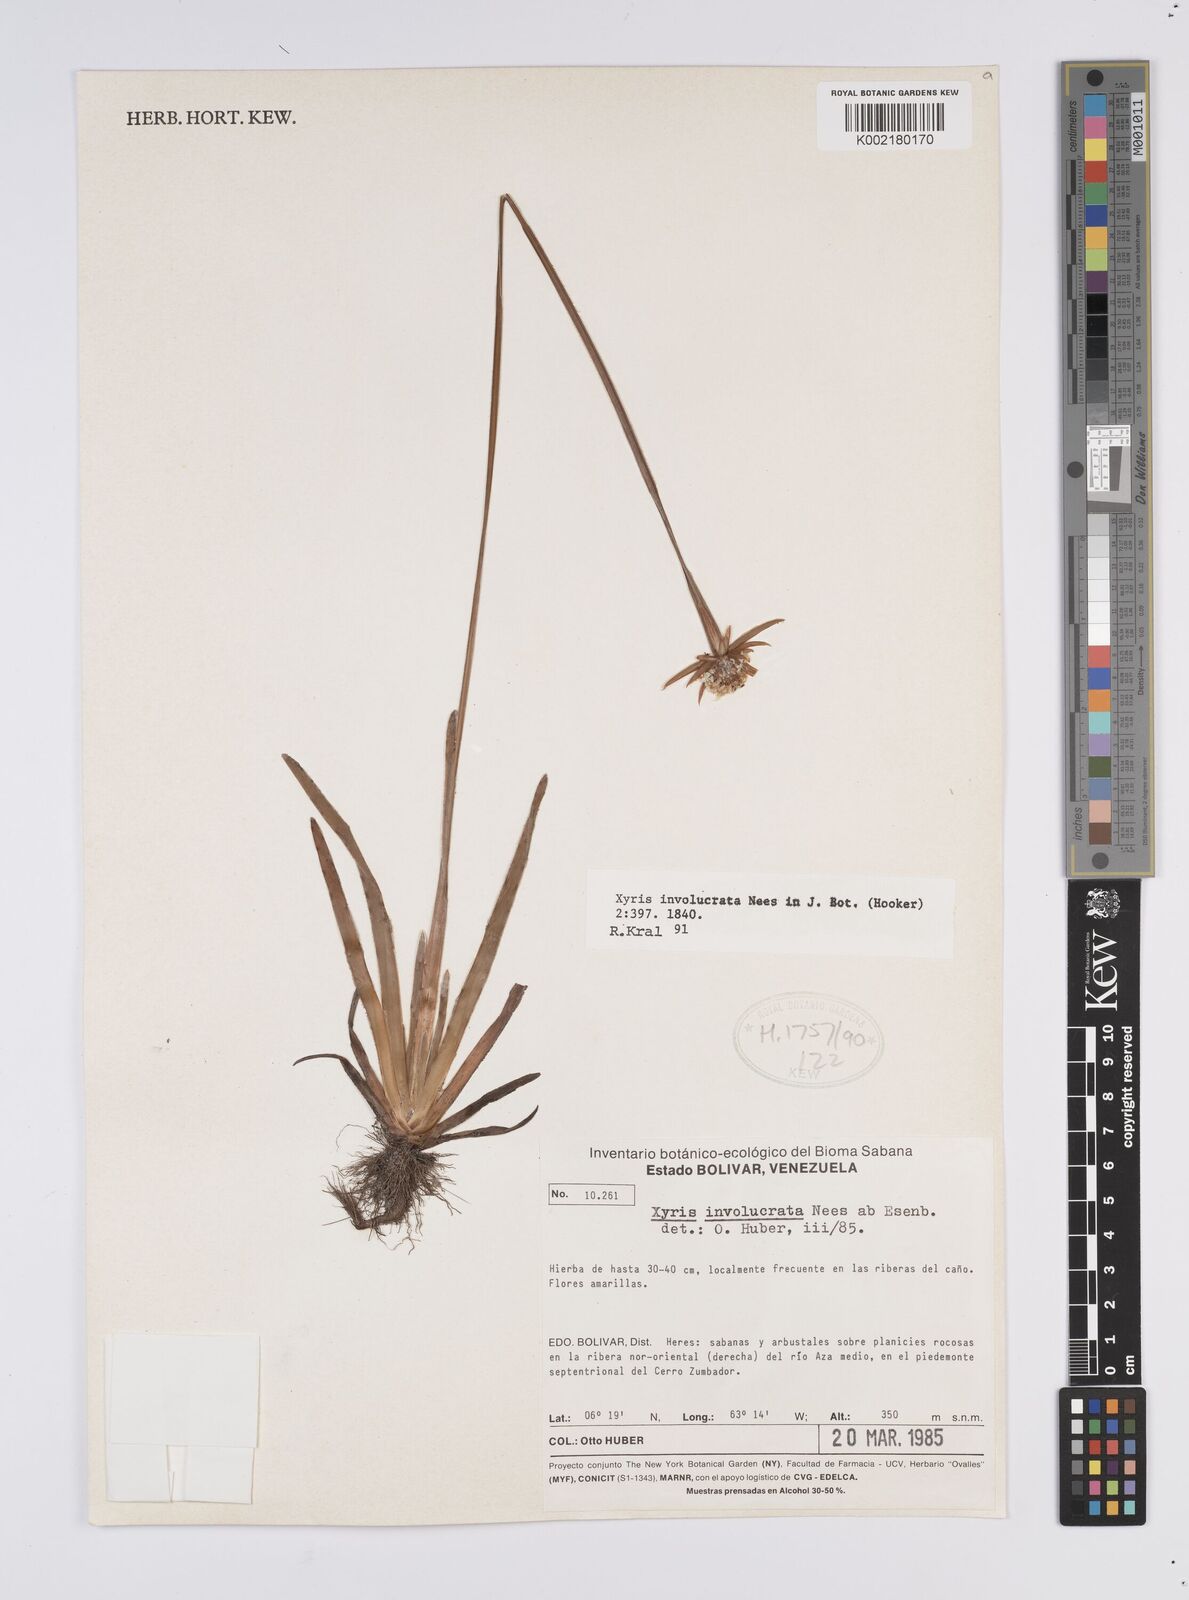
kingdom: Plantae
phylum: Tracheophyta
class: Liliopsida
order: Poales
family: Xyridaceae
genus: Xyris
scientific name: Xyris involucrata
